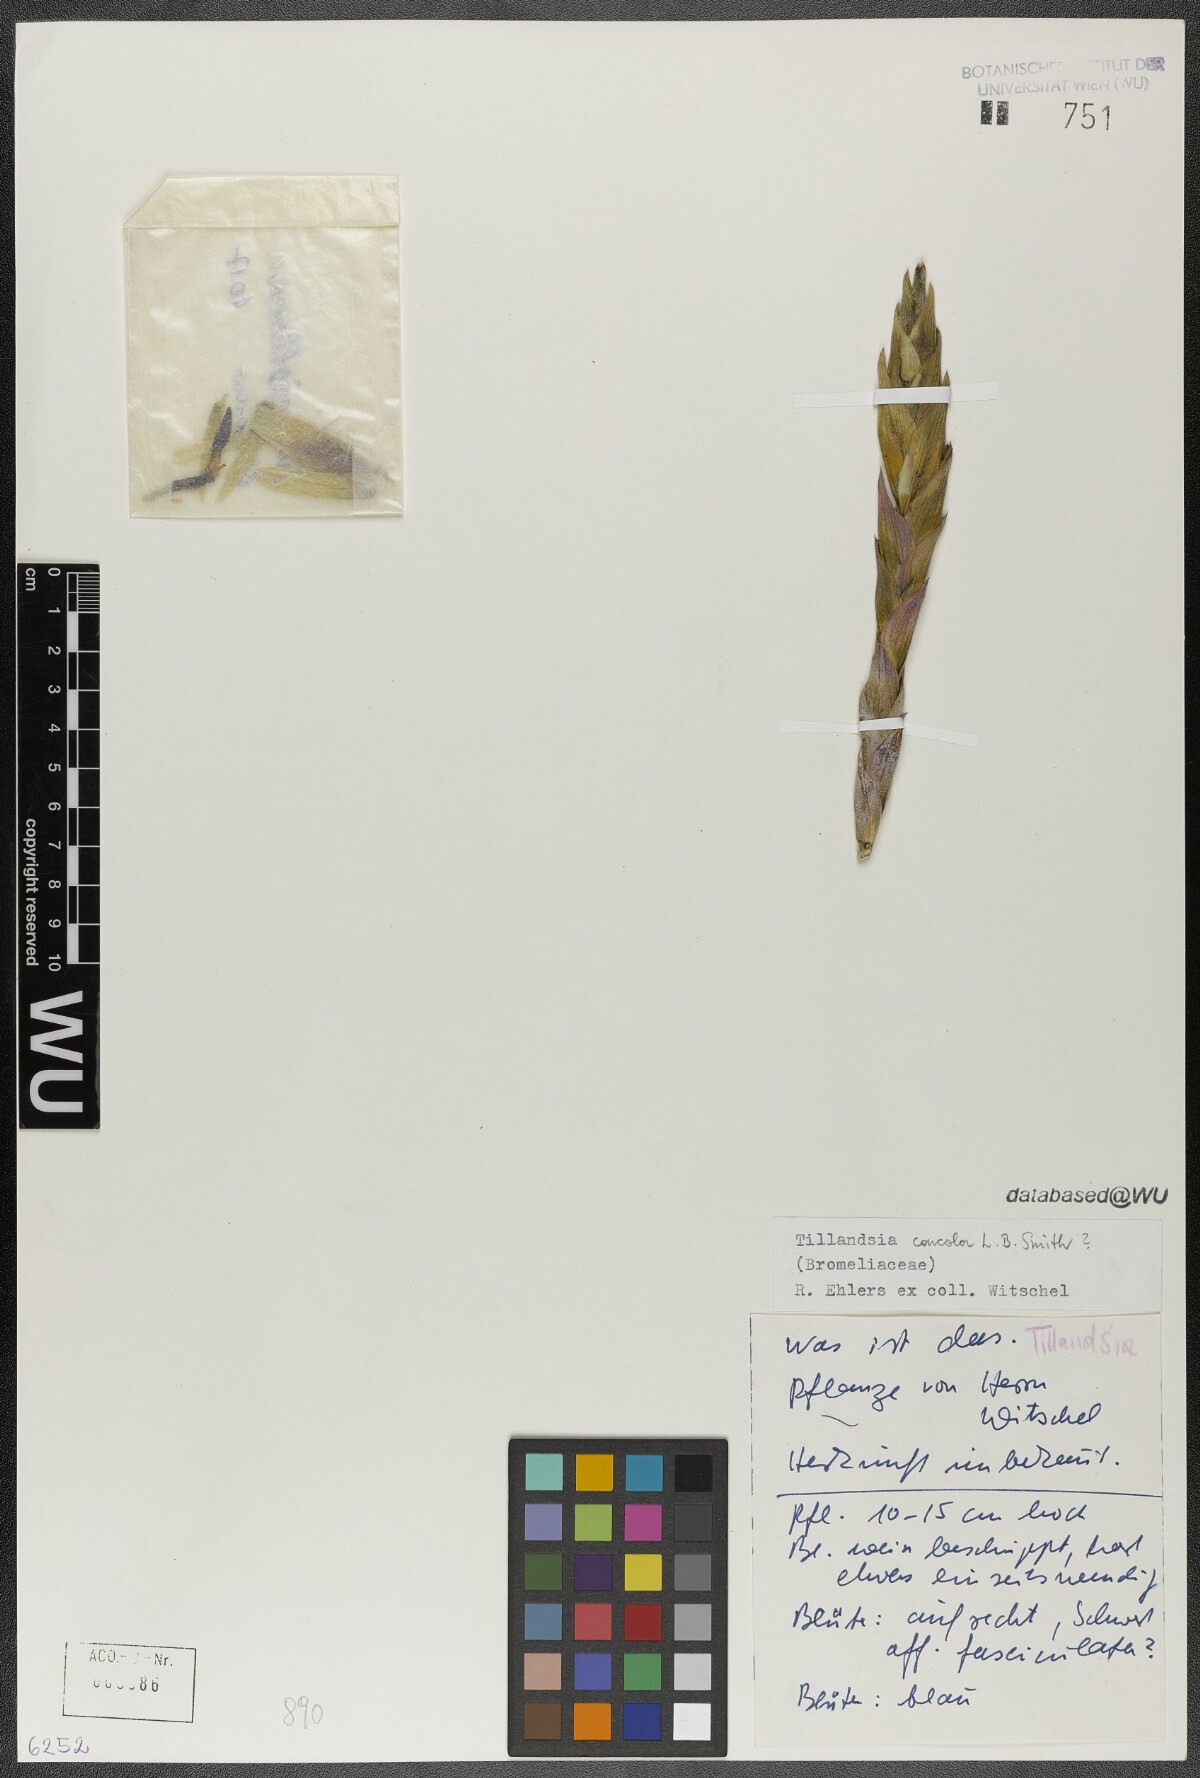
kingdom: Plantae
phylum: Tracheophyta
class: Liliopsida
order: Poales
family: Bromeliaceae
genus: Tillandsia
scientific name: Tillandsia concolor
